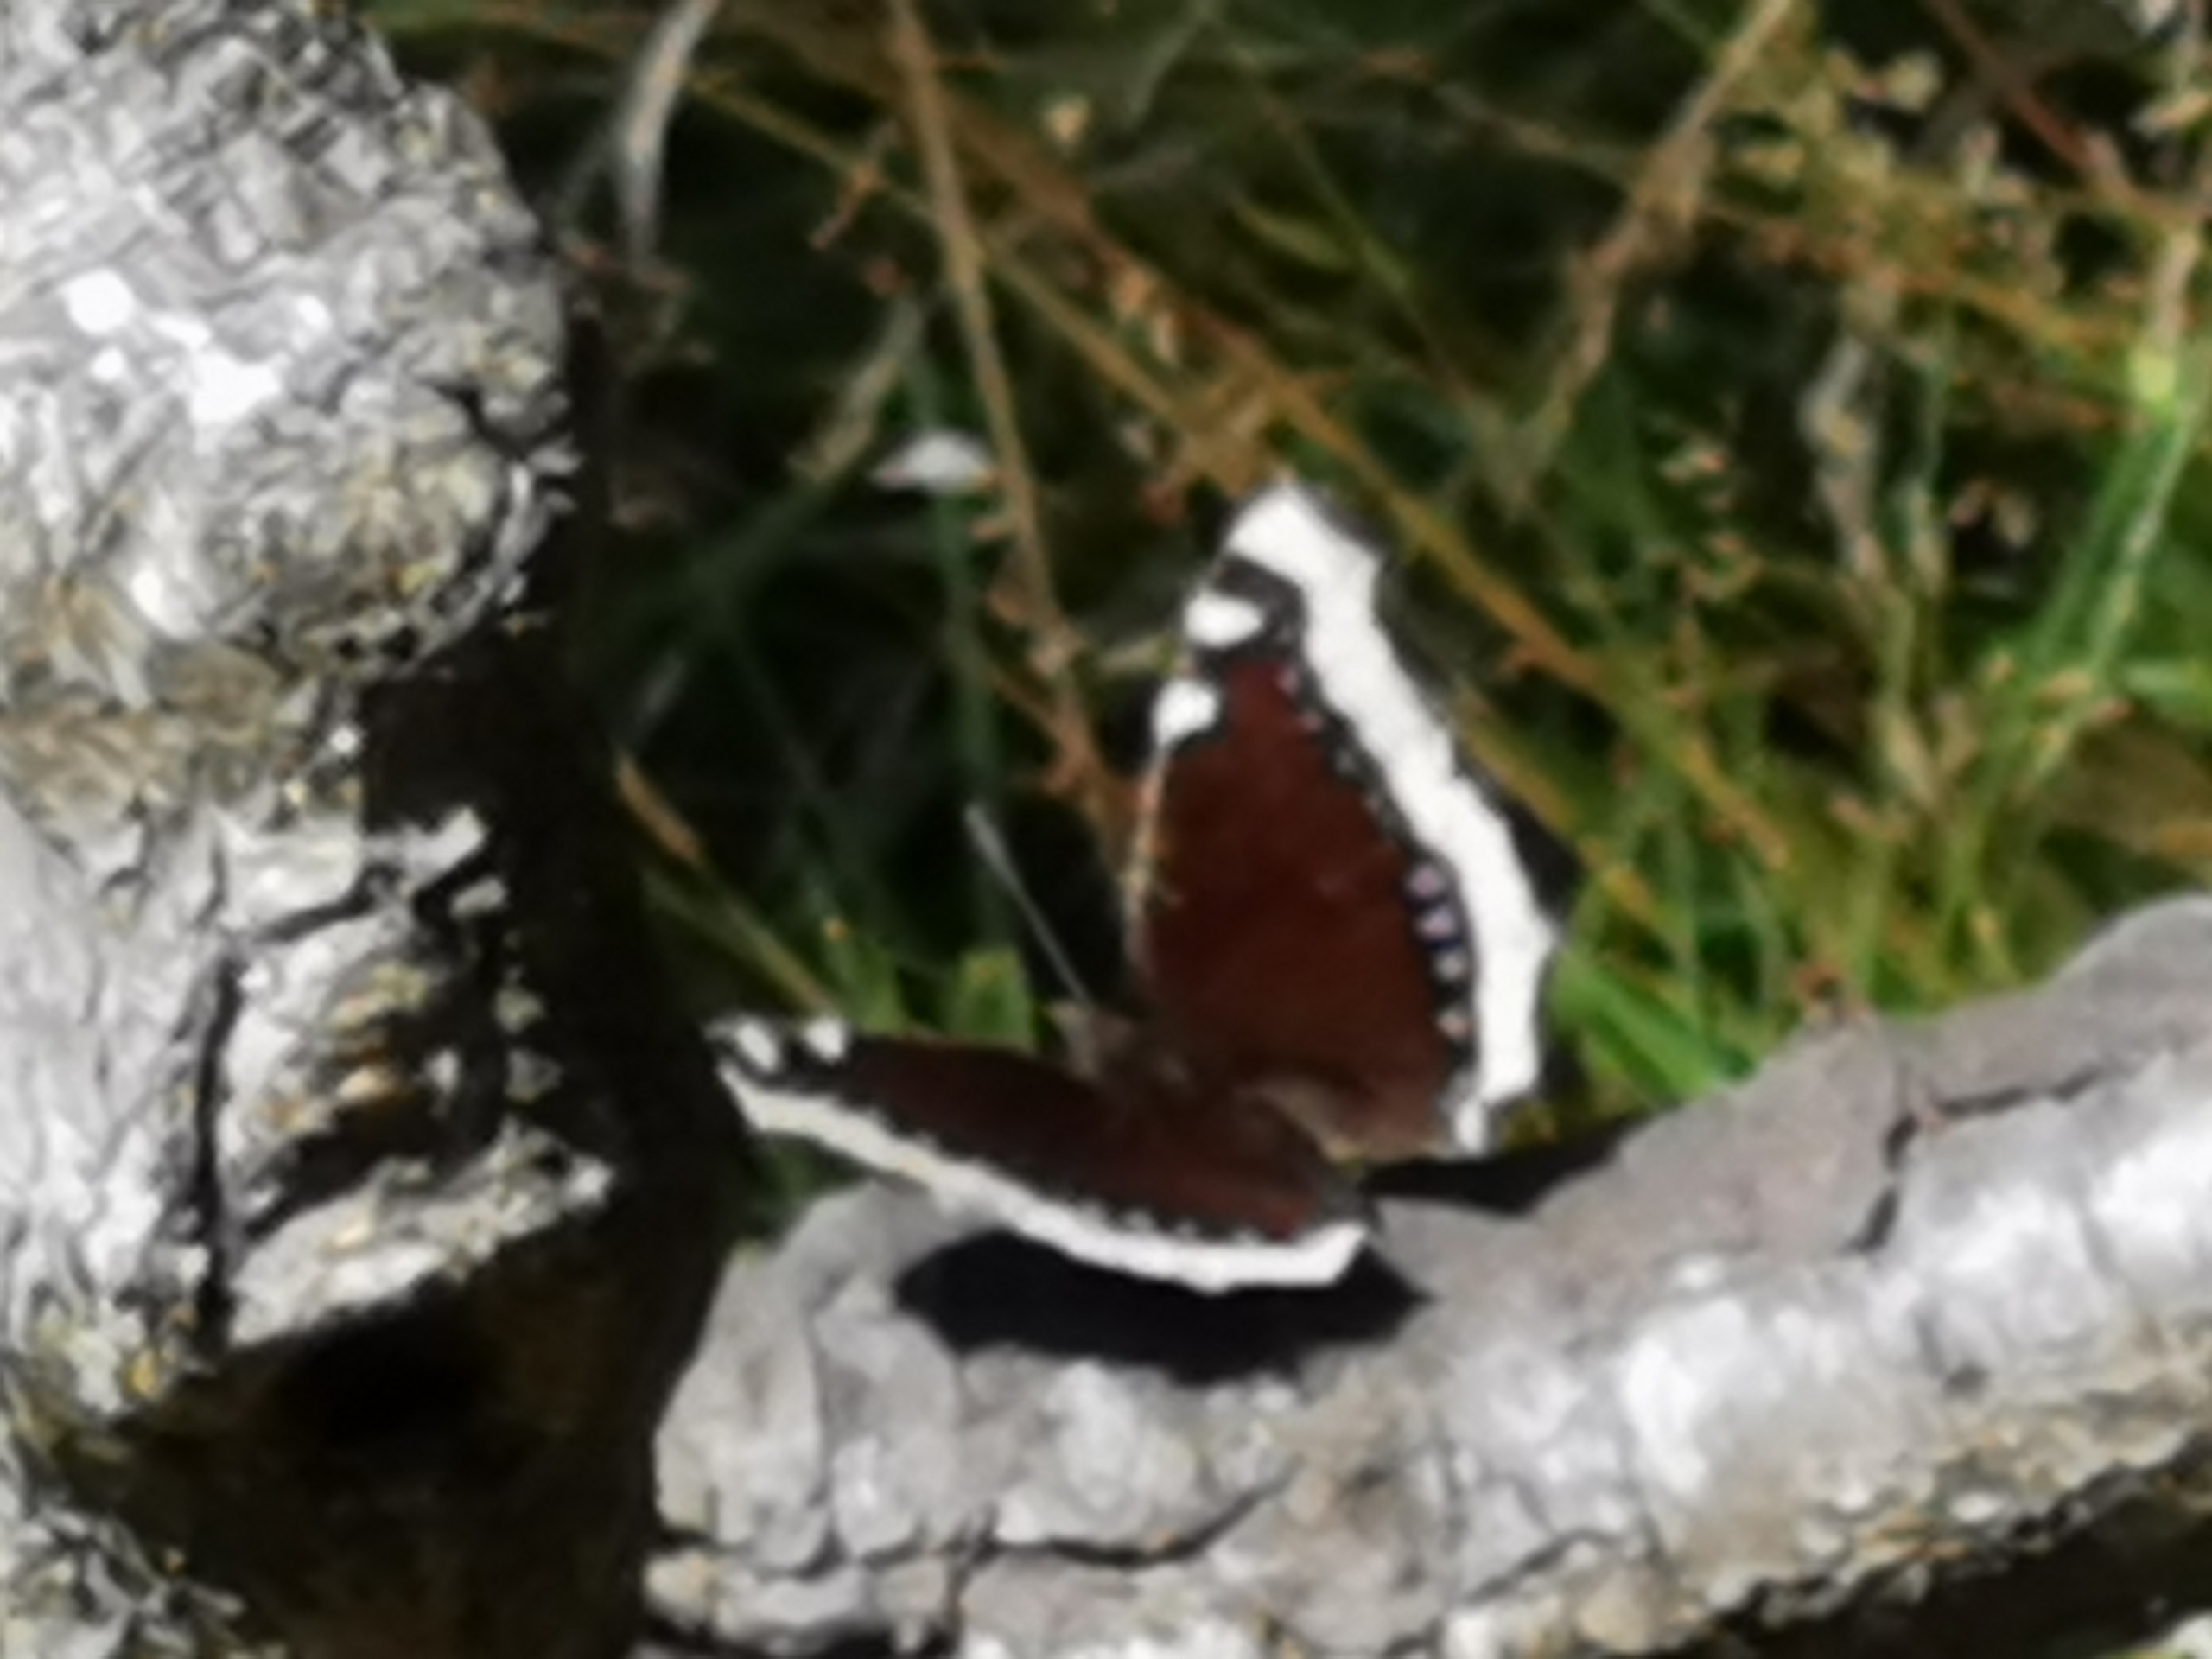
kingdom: Animalia
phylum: Arthropoda
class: Insecta
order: Lepidoptera
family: Nymphalidae
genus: Nymphalis
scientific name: Nymphalis antiopa
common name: Sørgekåbe
